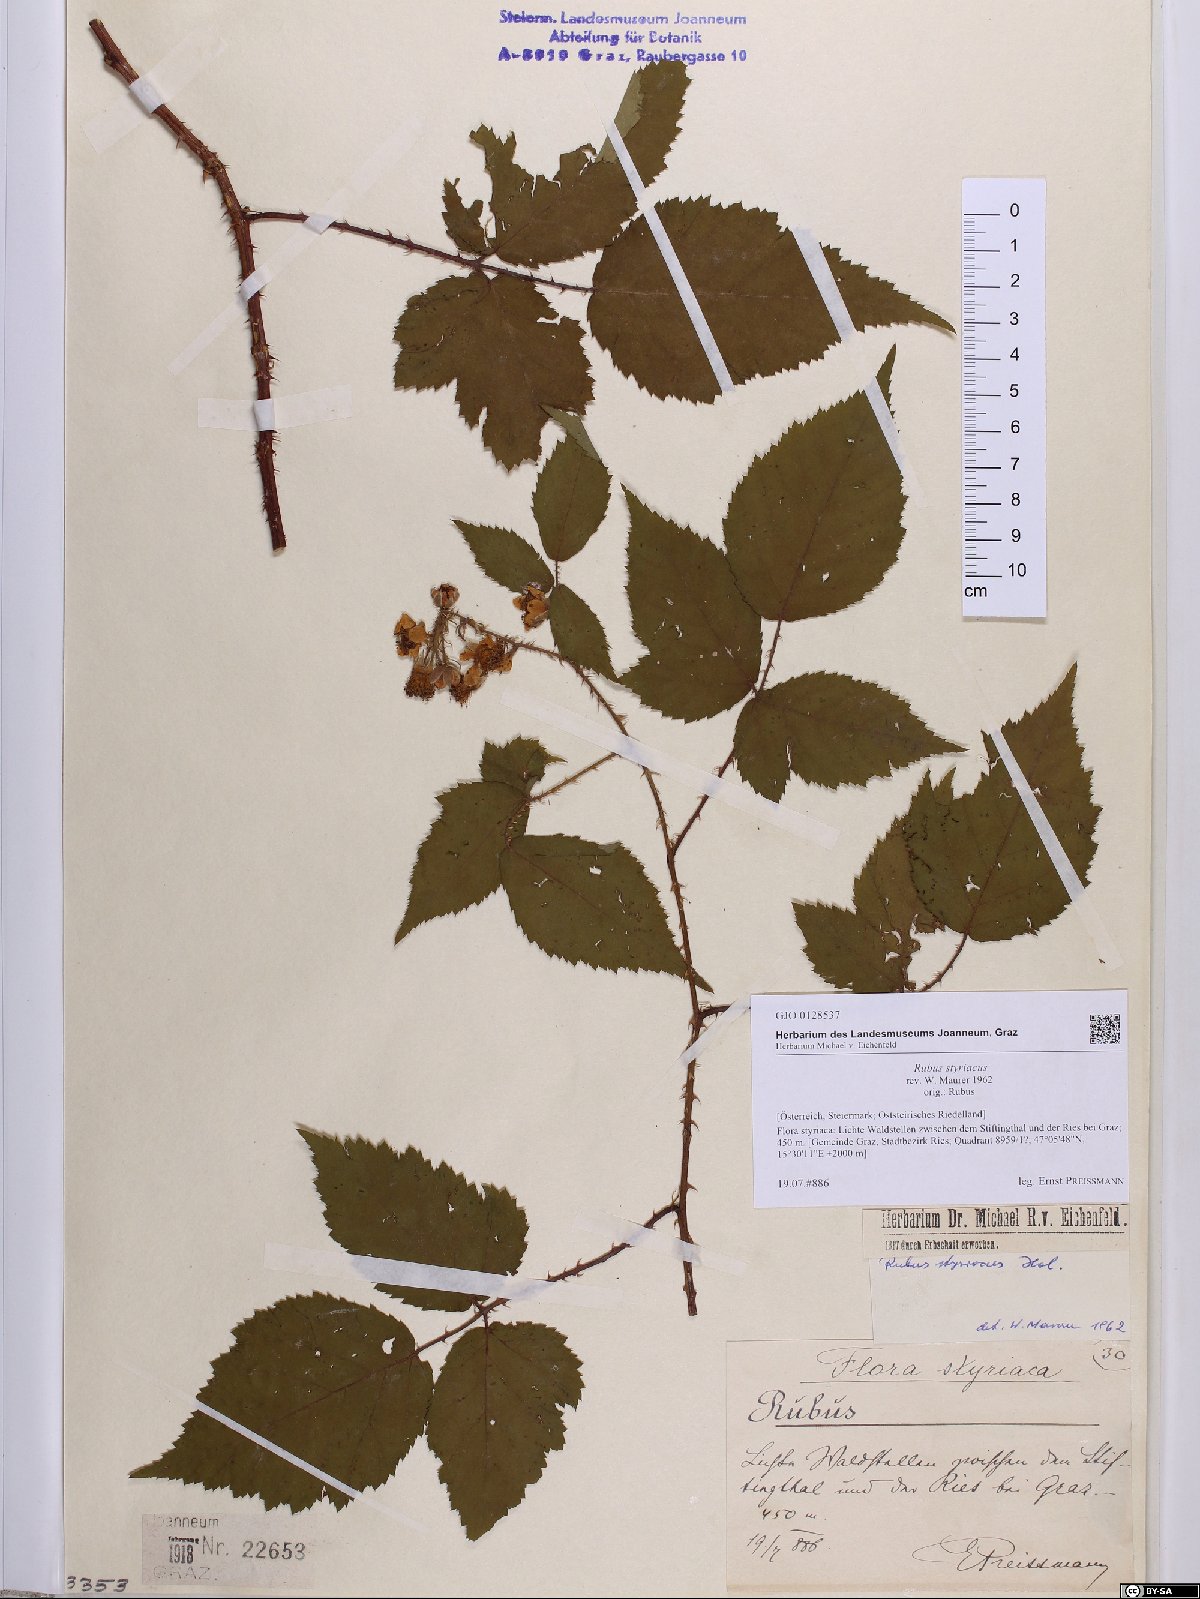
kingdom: Plantae
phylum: Tracheophyta
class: Magnoliopsida
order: Rosales
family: Rosaceae
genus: Rubus
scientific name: Rubus styriacus
